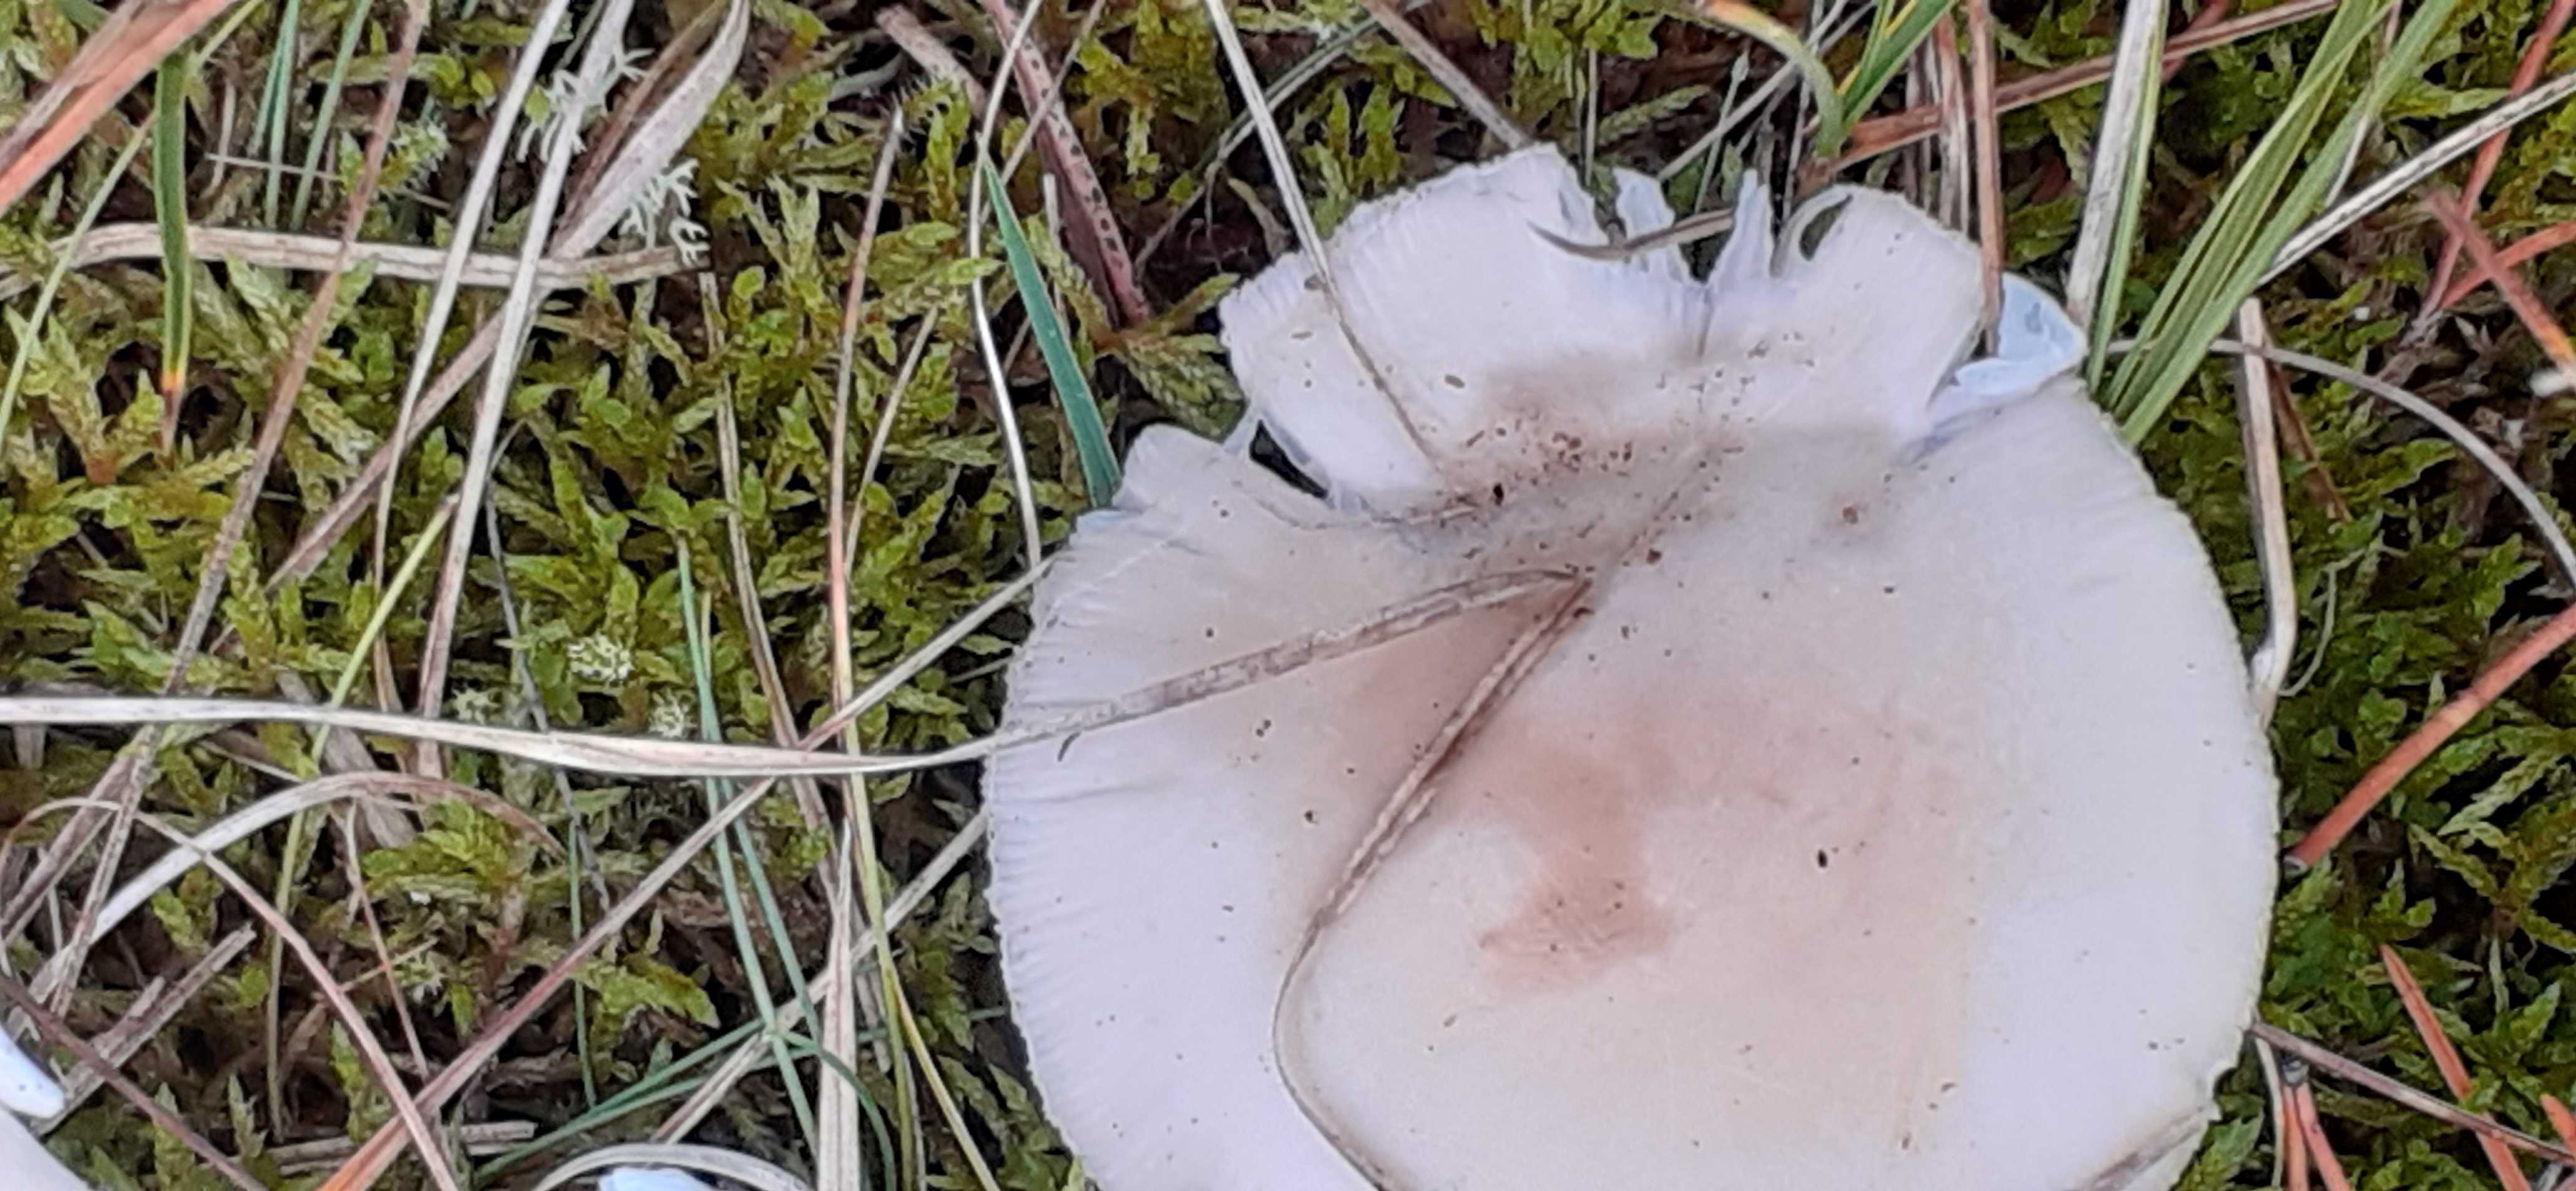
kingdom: Fungi
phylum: Basidiomycota
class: Agaricomycetes
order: Agaricales
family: Amanitaceae
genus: Amanita
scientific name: Amanita gemmata
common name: okkergul fluesvamp
